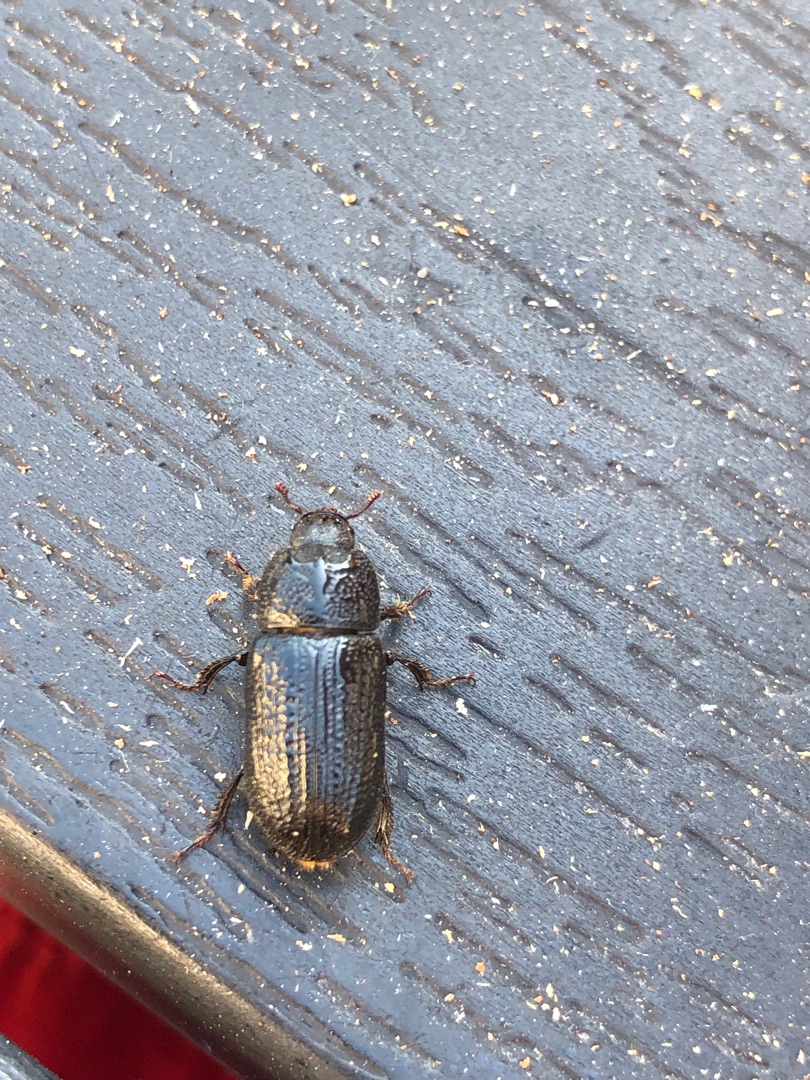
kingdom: Animalia
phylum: Arthropoda
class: Insecta
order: Coleoptera
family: Lucanidae
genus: Sinodendron
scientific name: Sinodendron cylindricum
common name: Valsehjort
